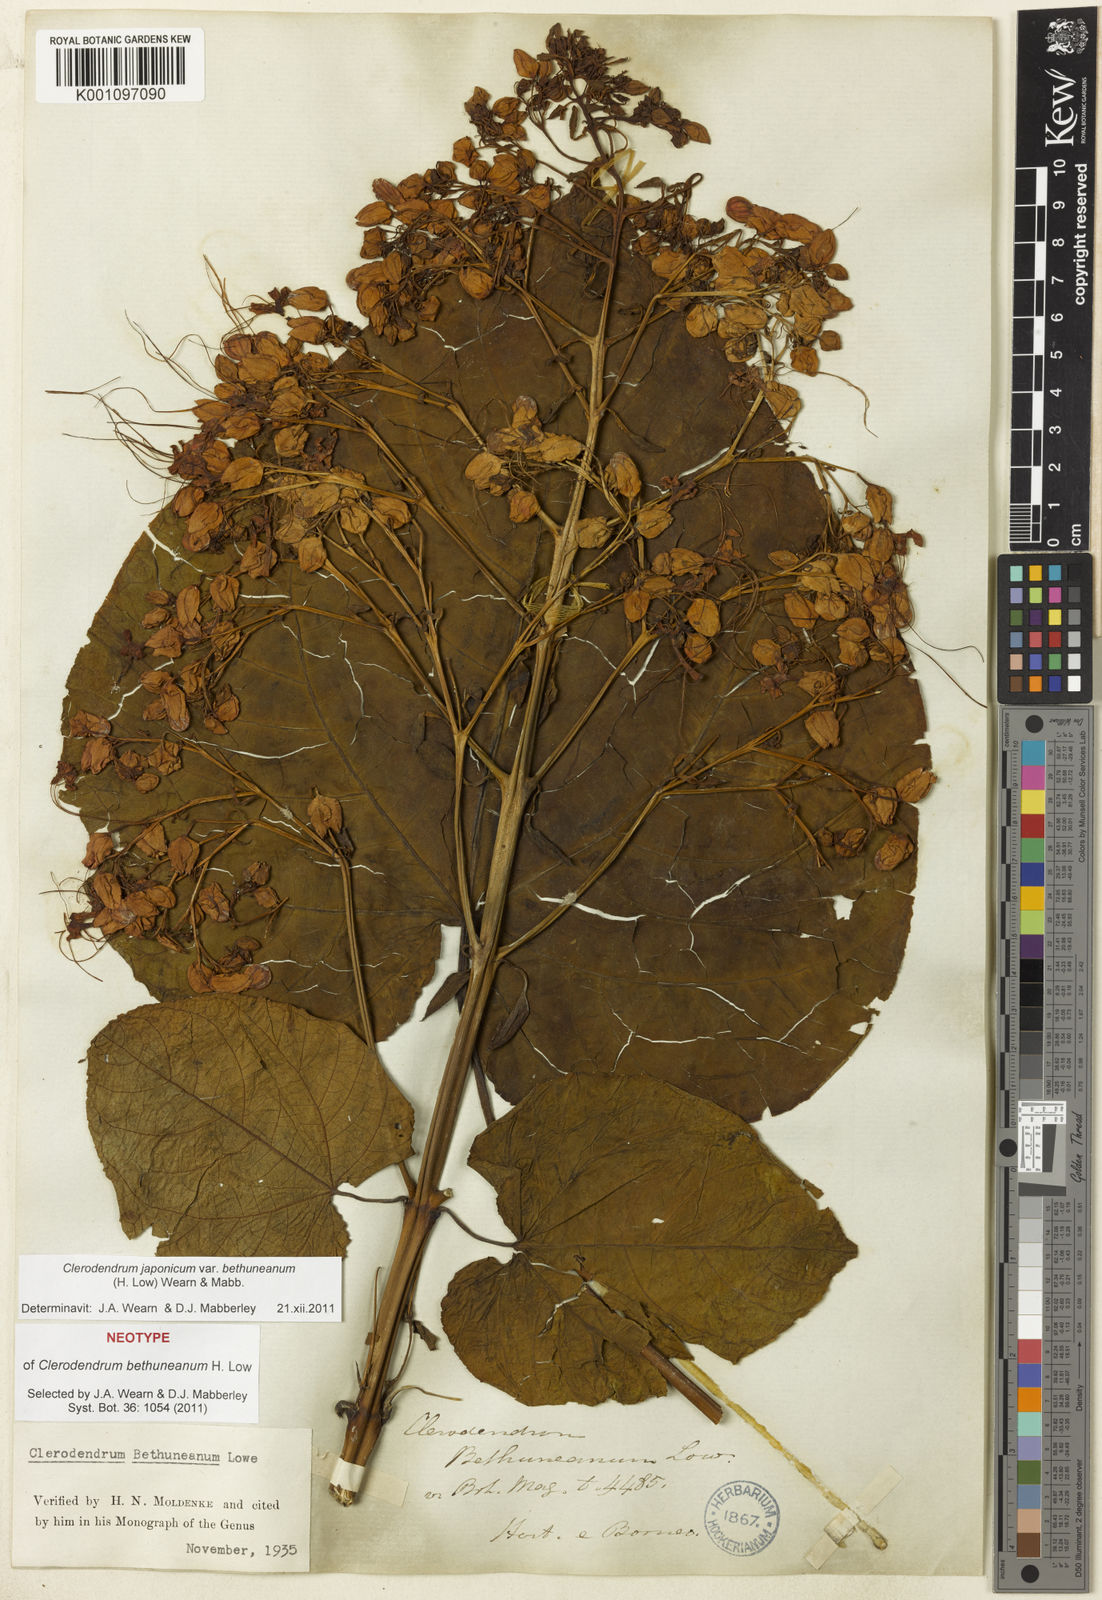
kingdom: Plantae
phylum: Tracheophyta
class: Magnoliopsida
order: Lamiales
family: Lamiaceae
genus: Clerodendrum
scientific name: Clerodendrum japonicum
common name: Japanese glorybower
